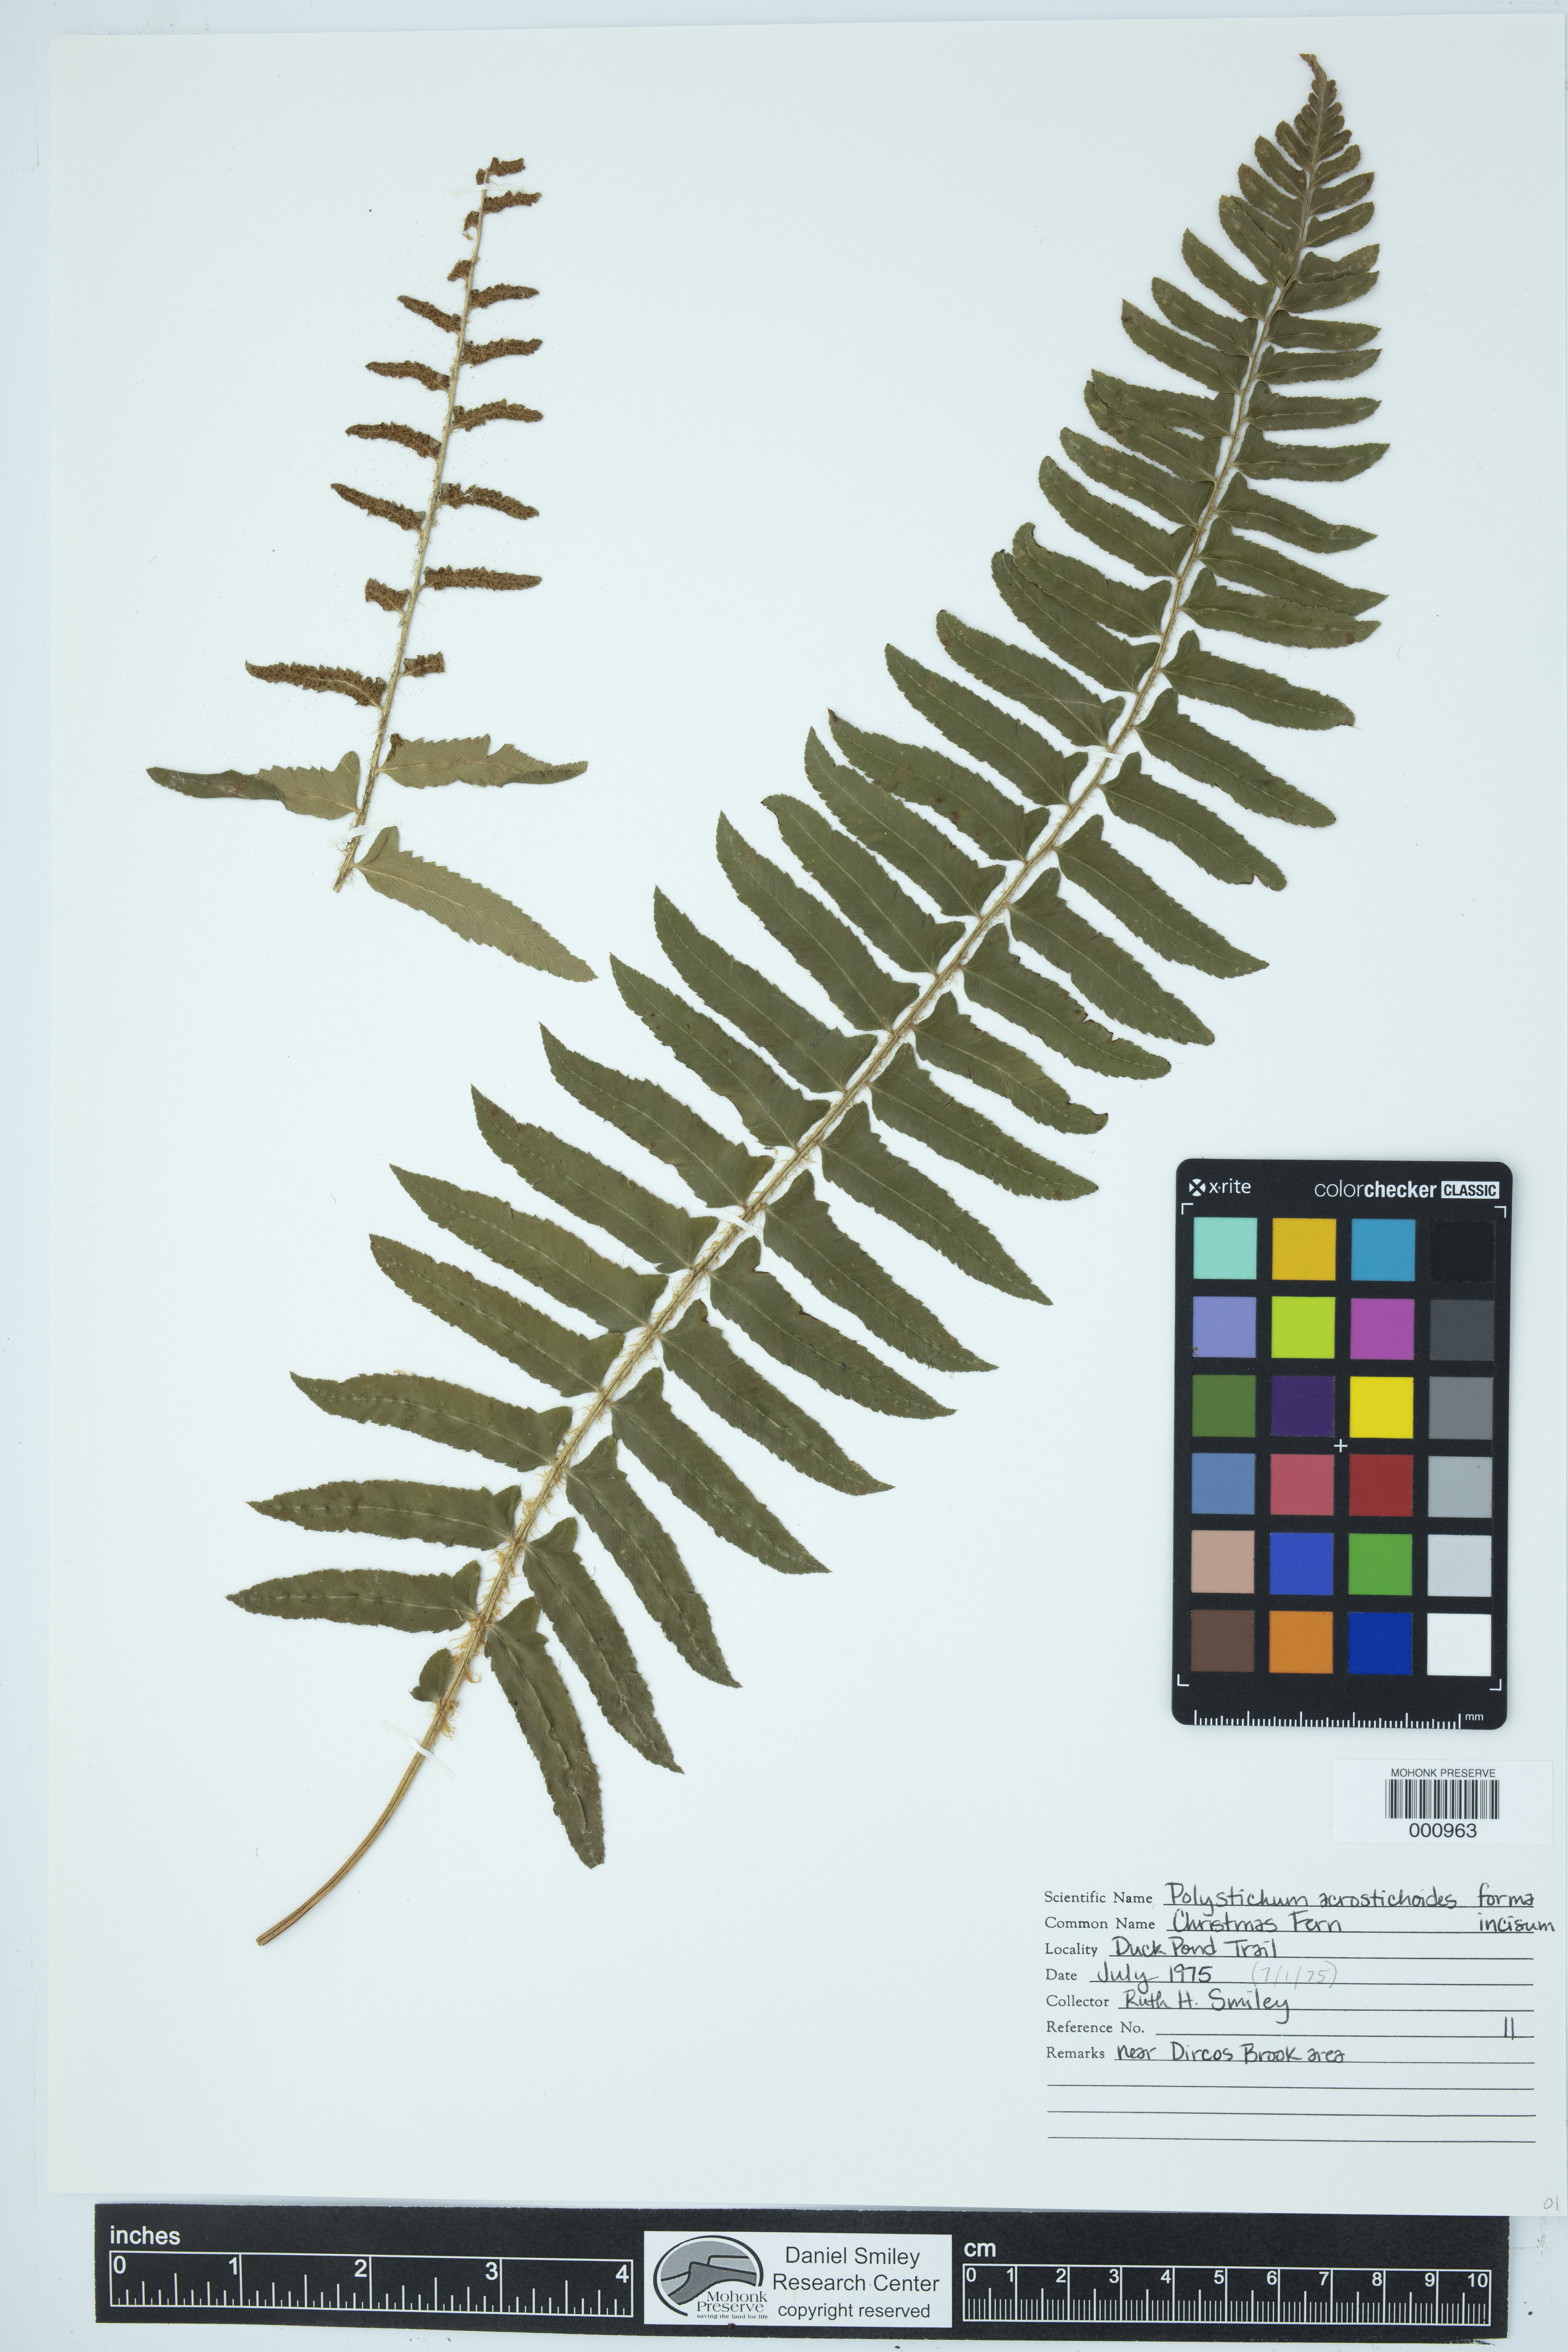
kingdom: Plantae
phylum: Tracheophyta
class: Polypodiopsida
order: Polypodiales
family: Dryopteridaceae
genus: Polystichum
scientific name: Polystichum acrostichoides
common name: Christmas fern
